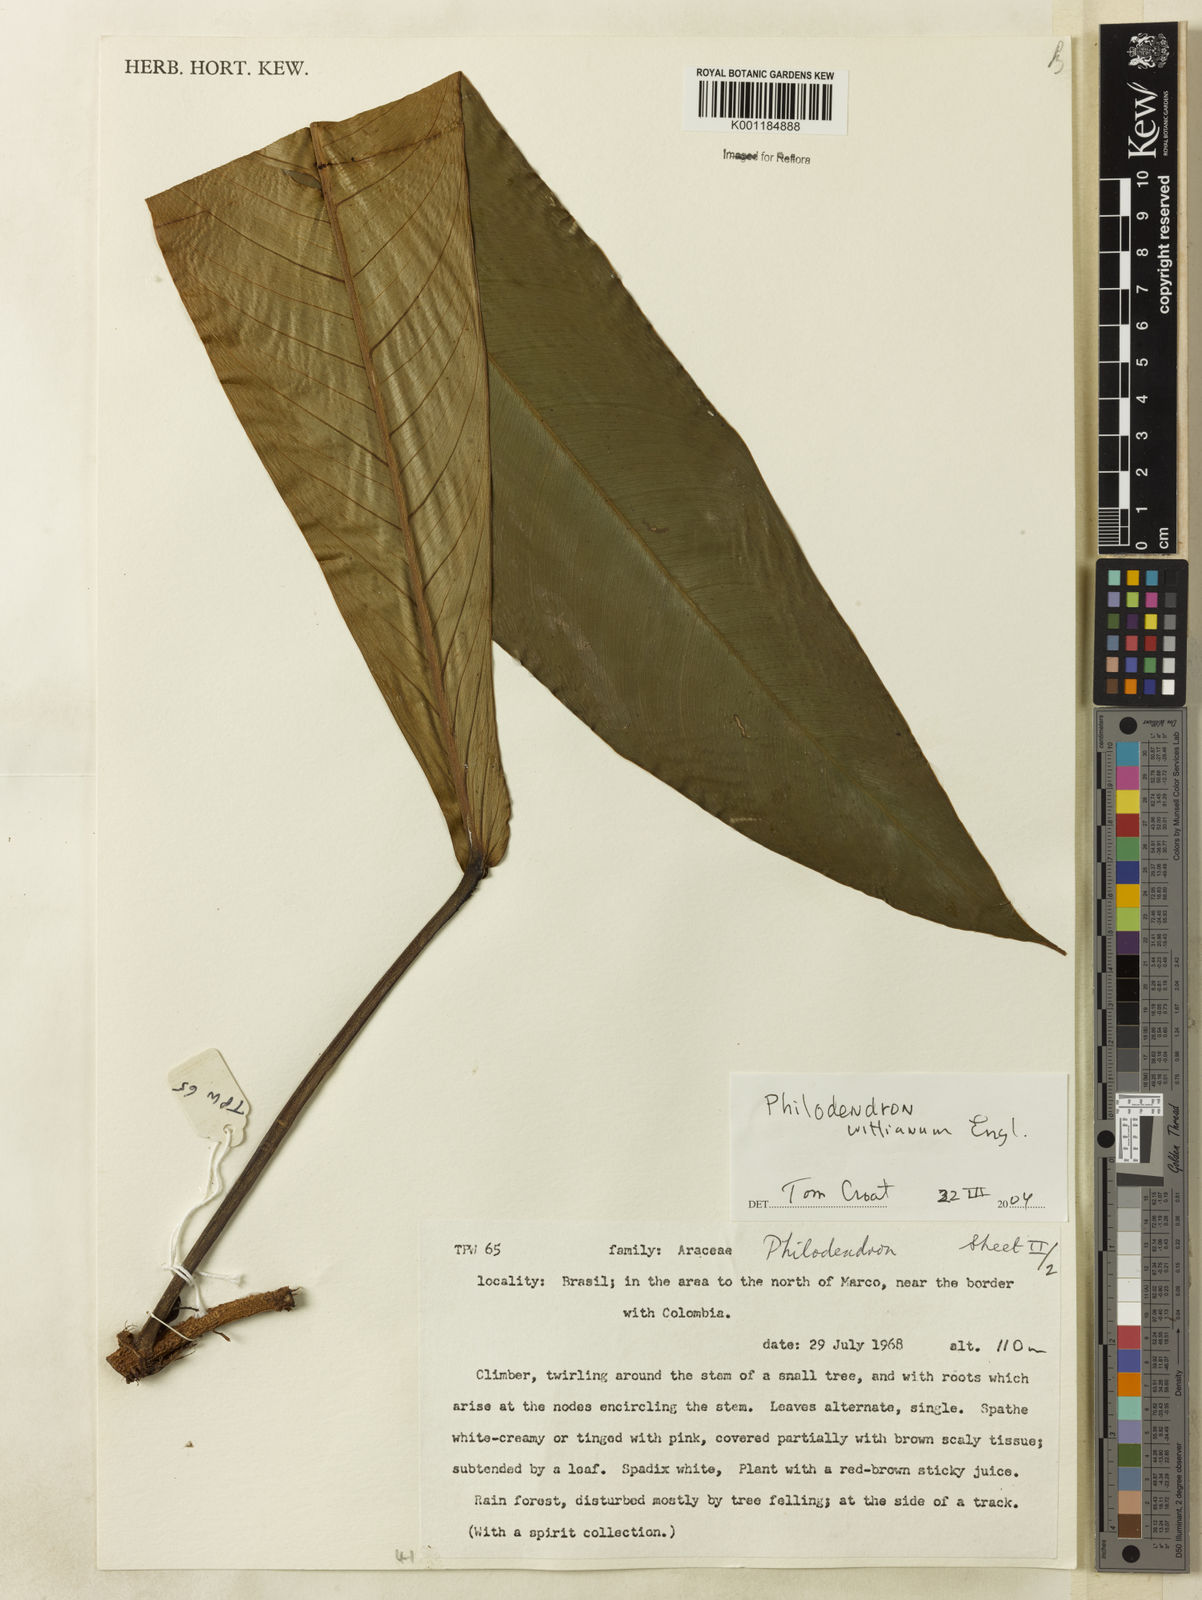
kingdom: Plantae
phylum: Tracheophyta
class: Liliopsida
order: Alismatales
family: Araceae
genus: Philodendron
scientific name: Philodendron wittianum
